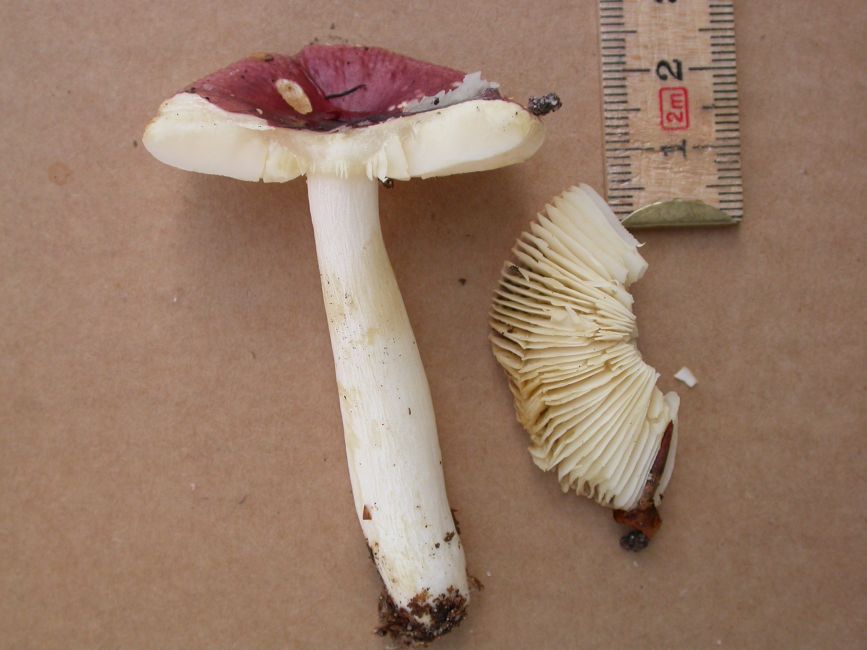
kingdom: Fungi
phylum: Basidiomycota
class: Agaricomycetes
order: Russulales
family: Russulaceae
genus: Russula
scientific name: Russula puellaris
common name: gulstokket skørhat
